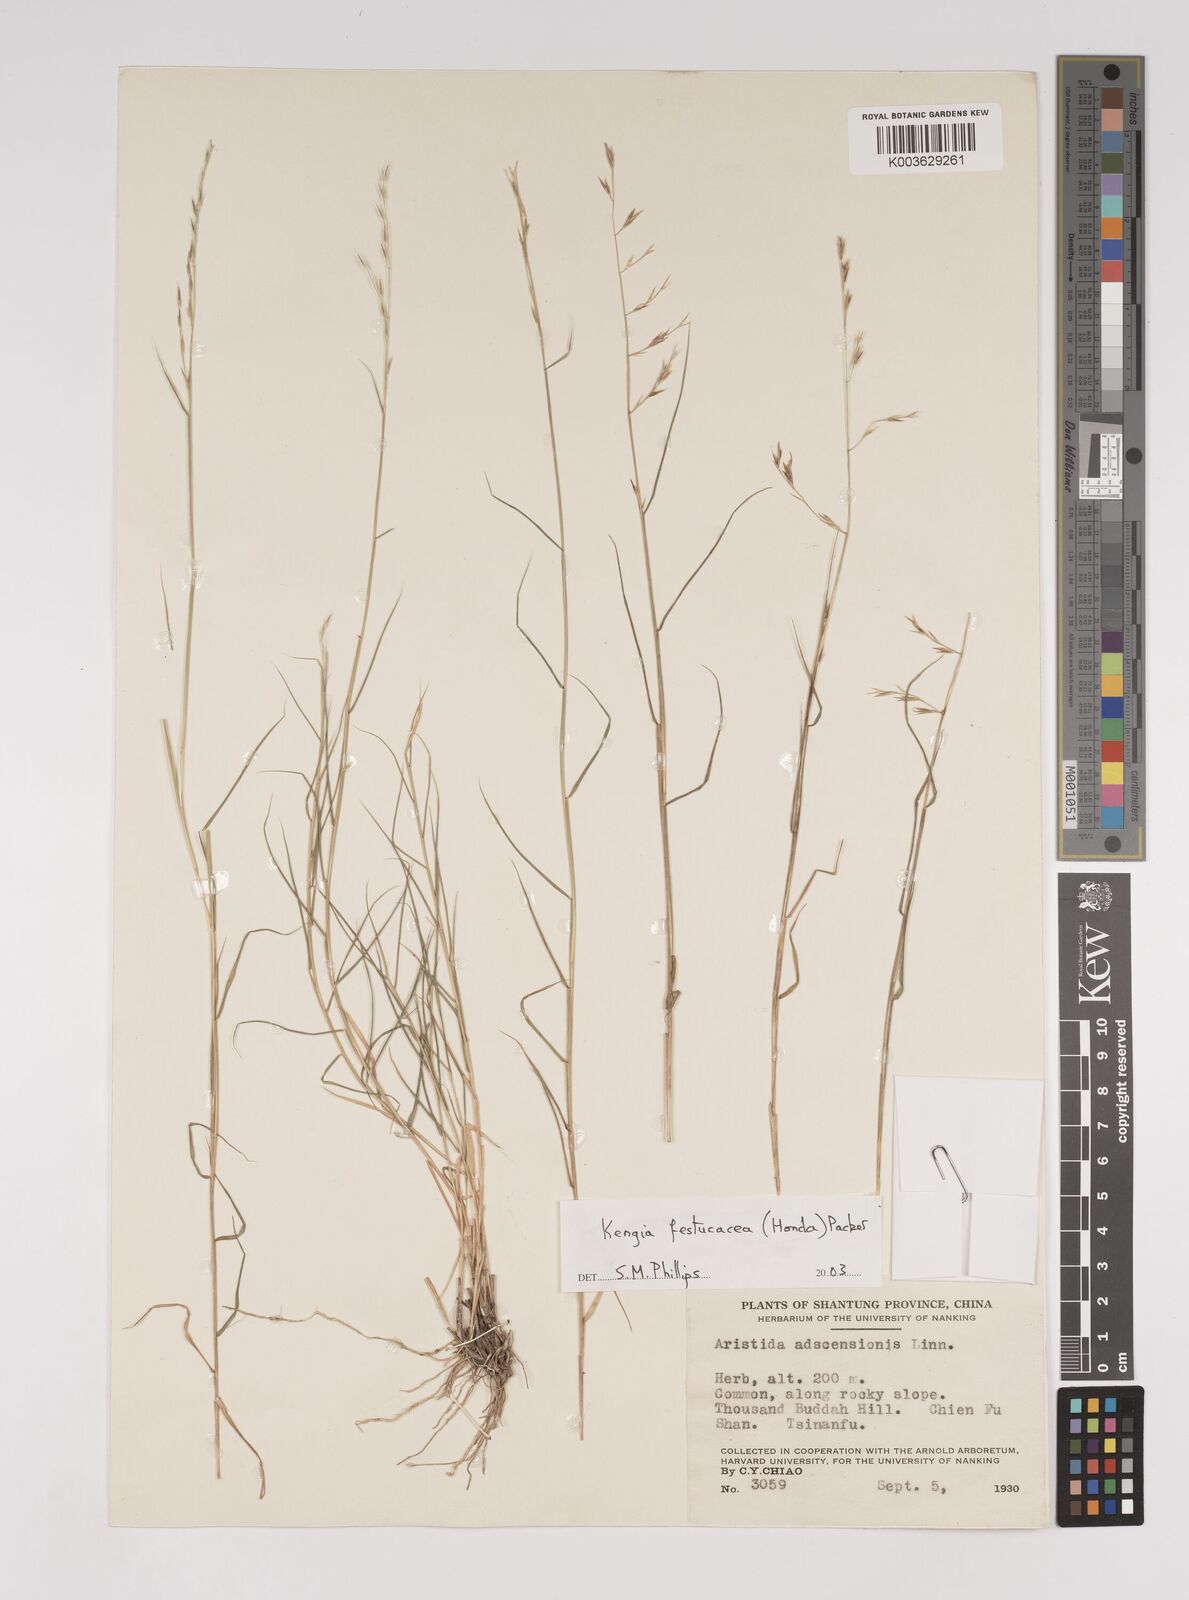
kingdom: Plantae
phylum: Tracheophyta
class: Liliopsida
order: Poales
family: Poaceae
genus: Cleistogenes
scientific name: Cleistogenes festucacea
